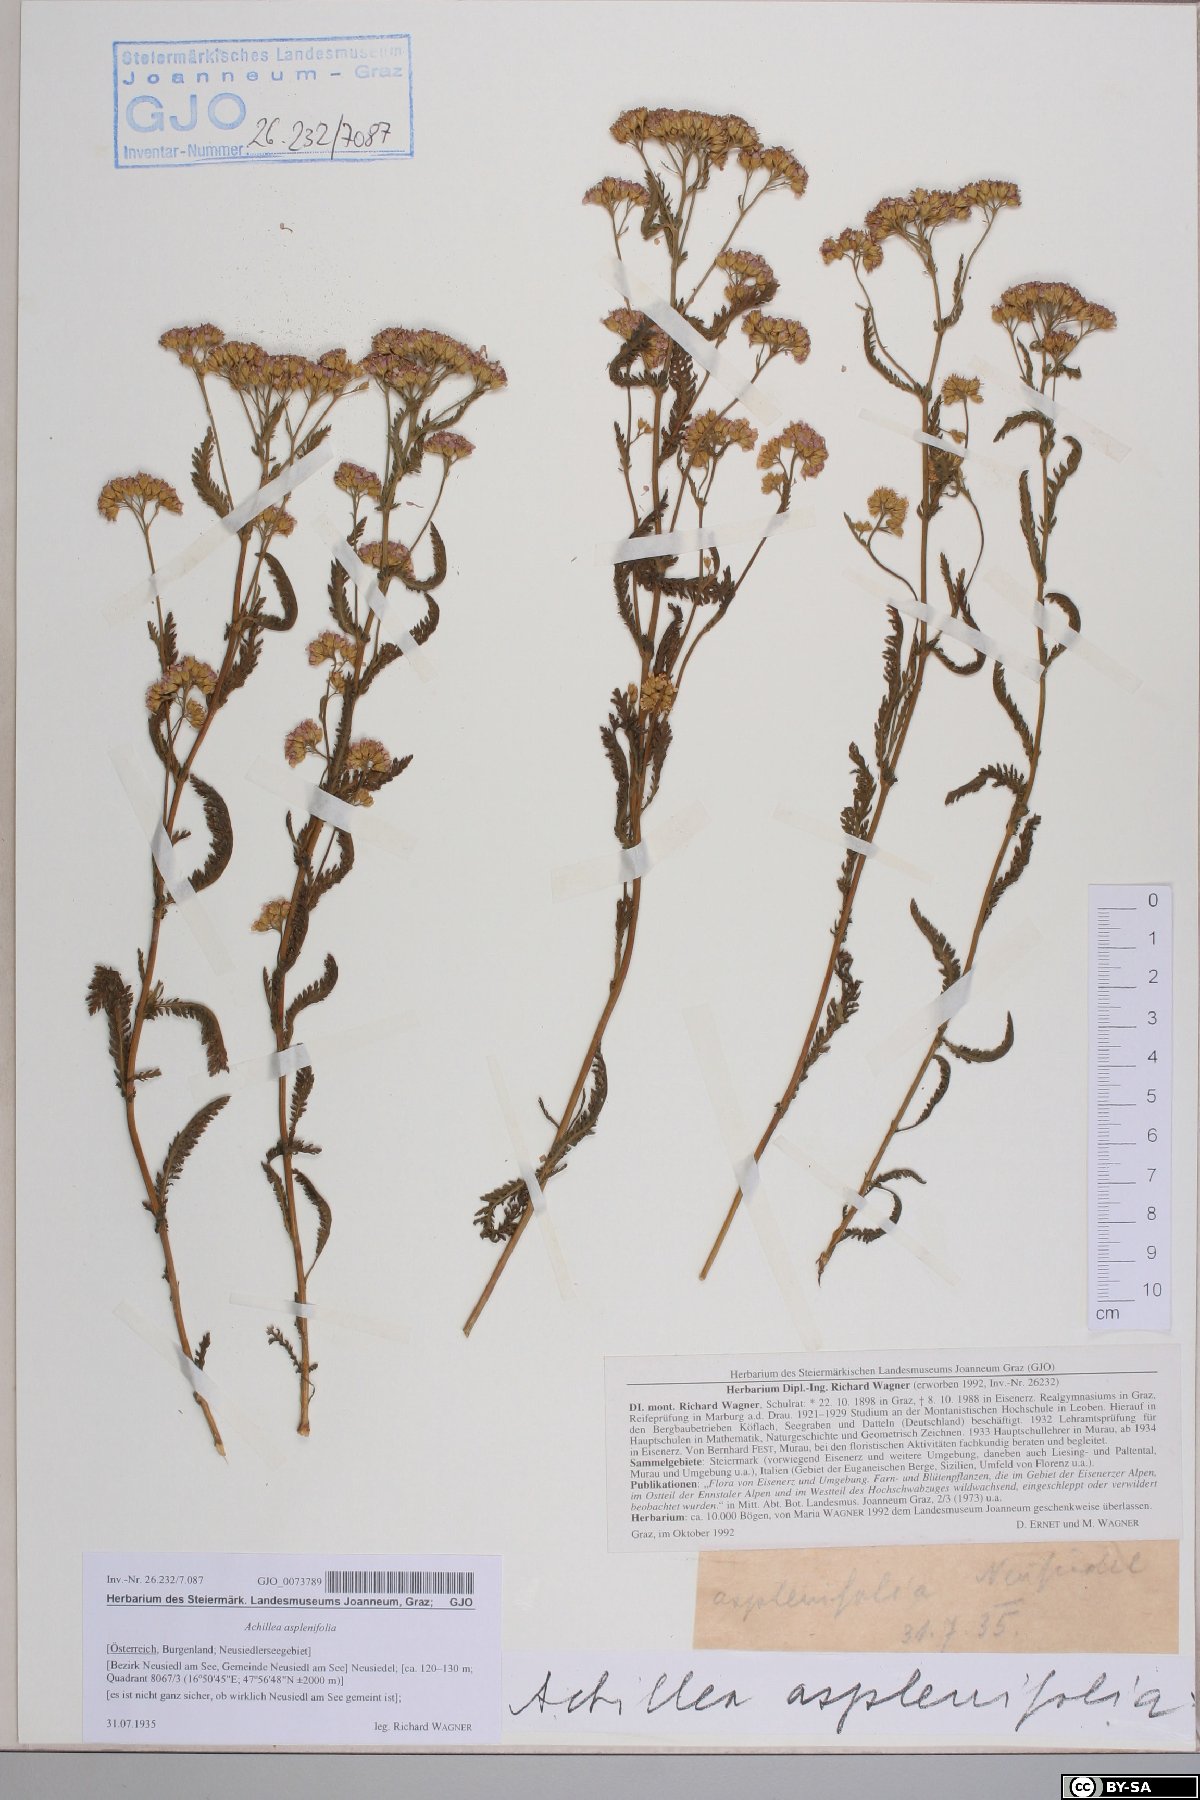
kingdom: Plantae
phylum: Tracheophyta
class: Magnoliopsida
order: Asterales
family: Asteraceae
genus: Achillea
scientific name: Achillea aspleniifolia
